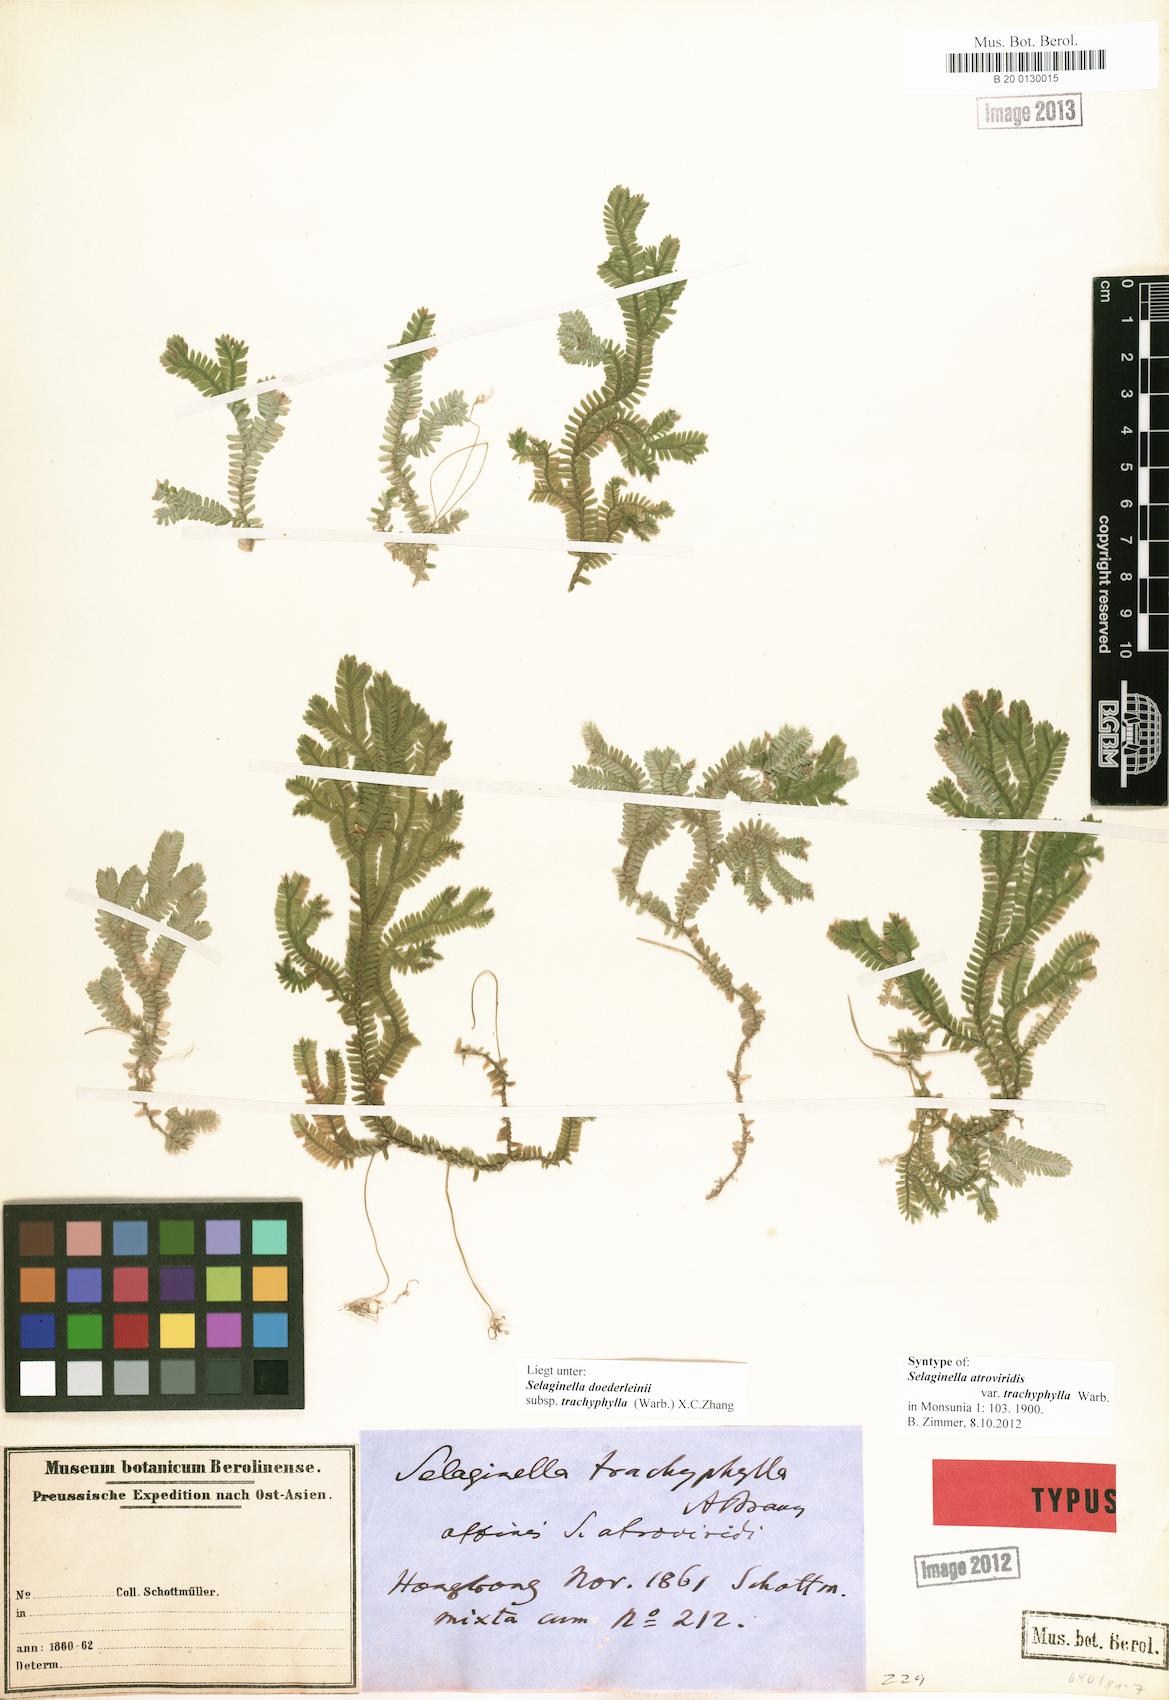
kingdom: Plantae
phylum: Tracheophyta
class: Lycopodiopsida
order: Selaginellales
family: Selaginellaceae
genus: Selaginella
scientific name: Selaginella trachyphylla
